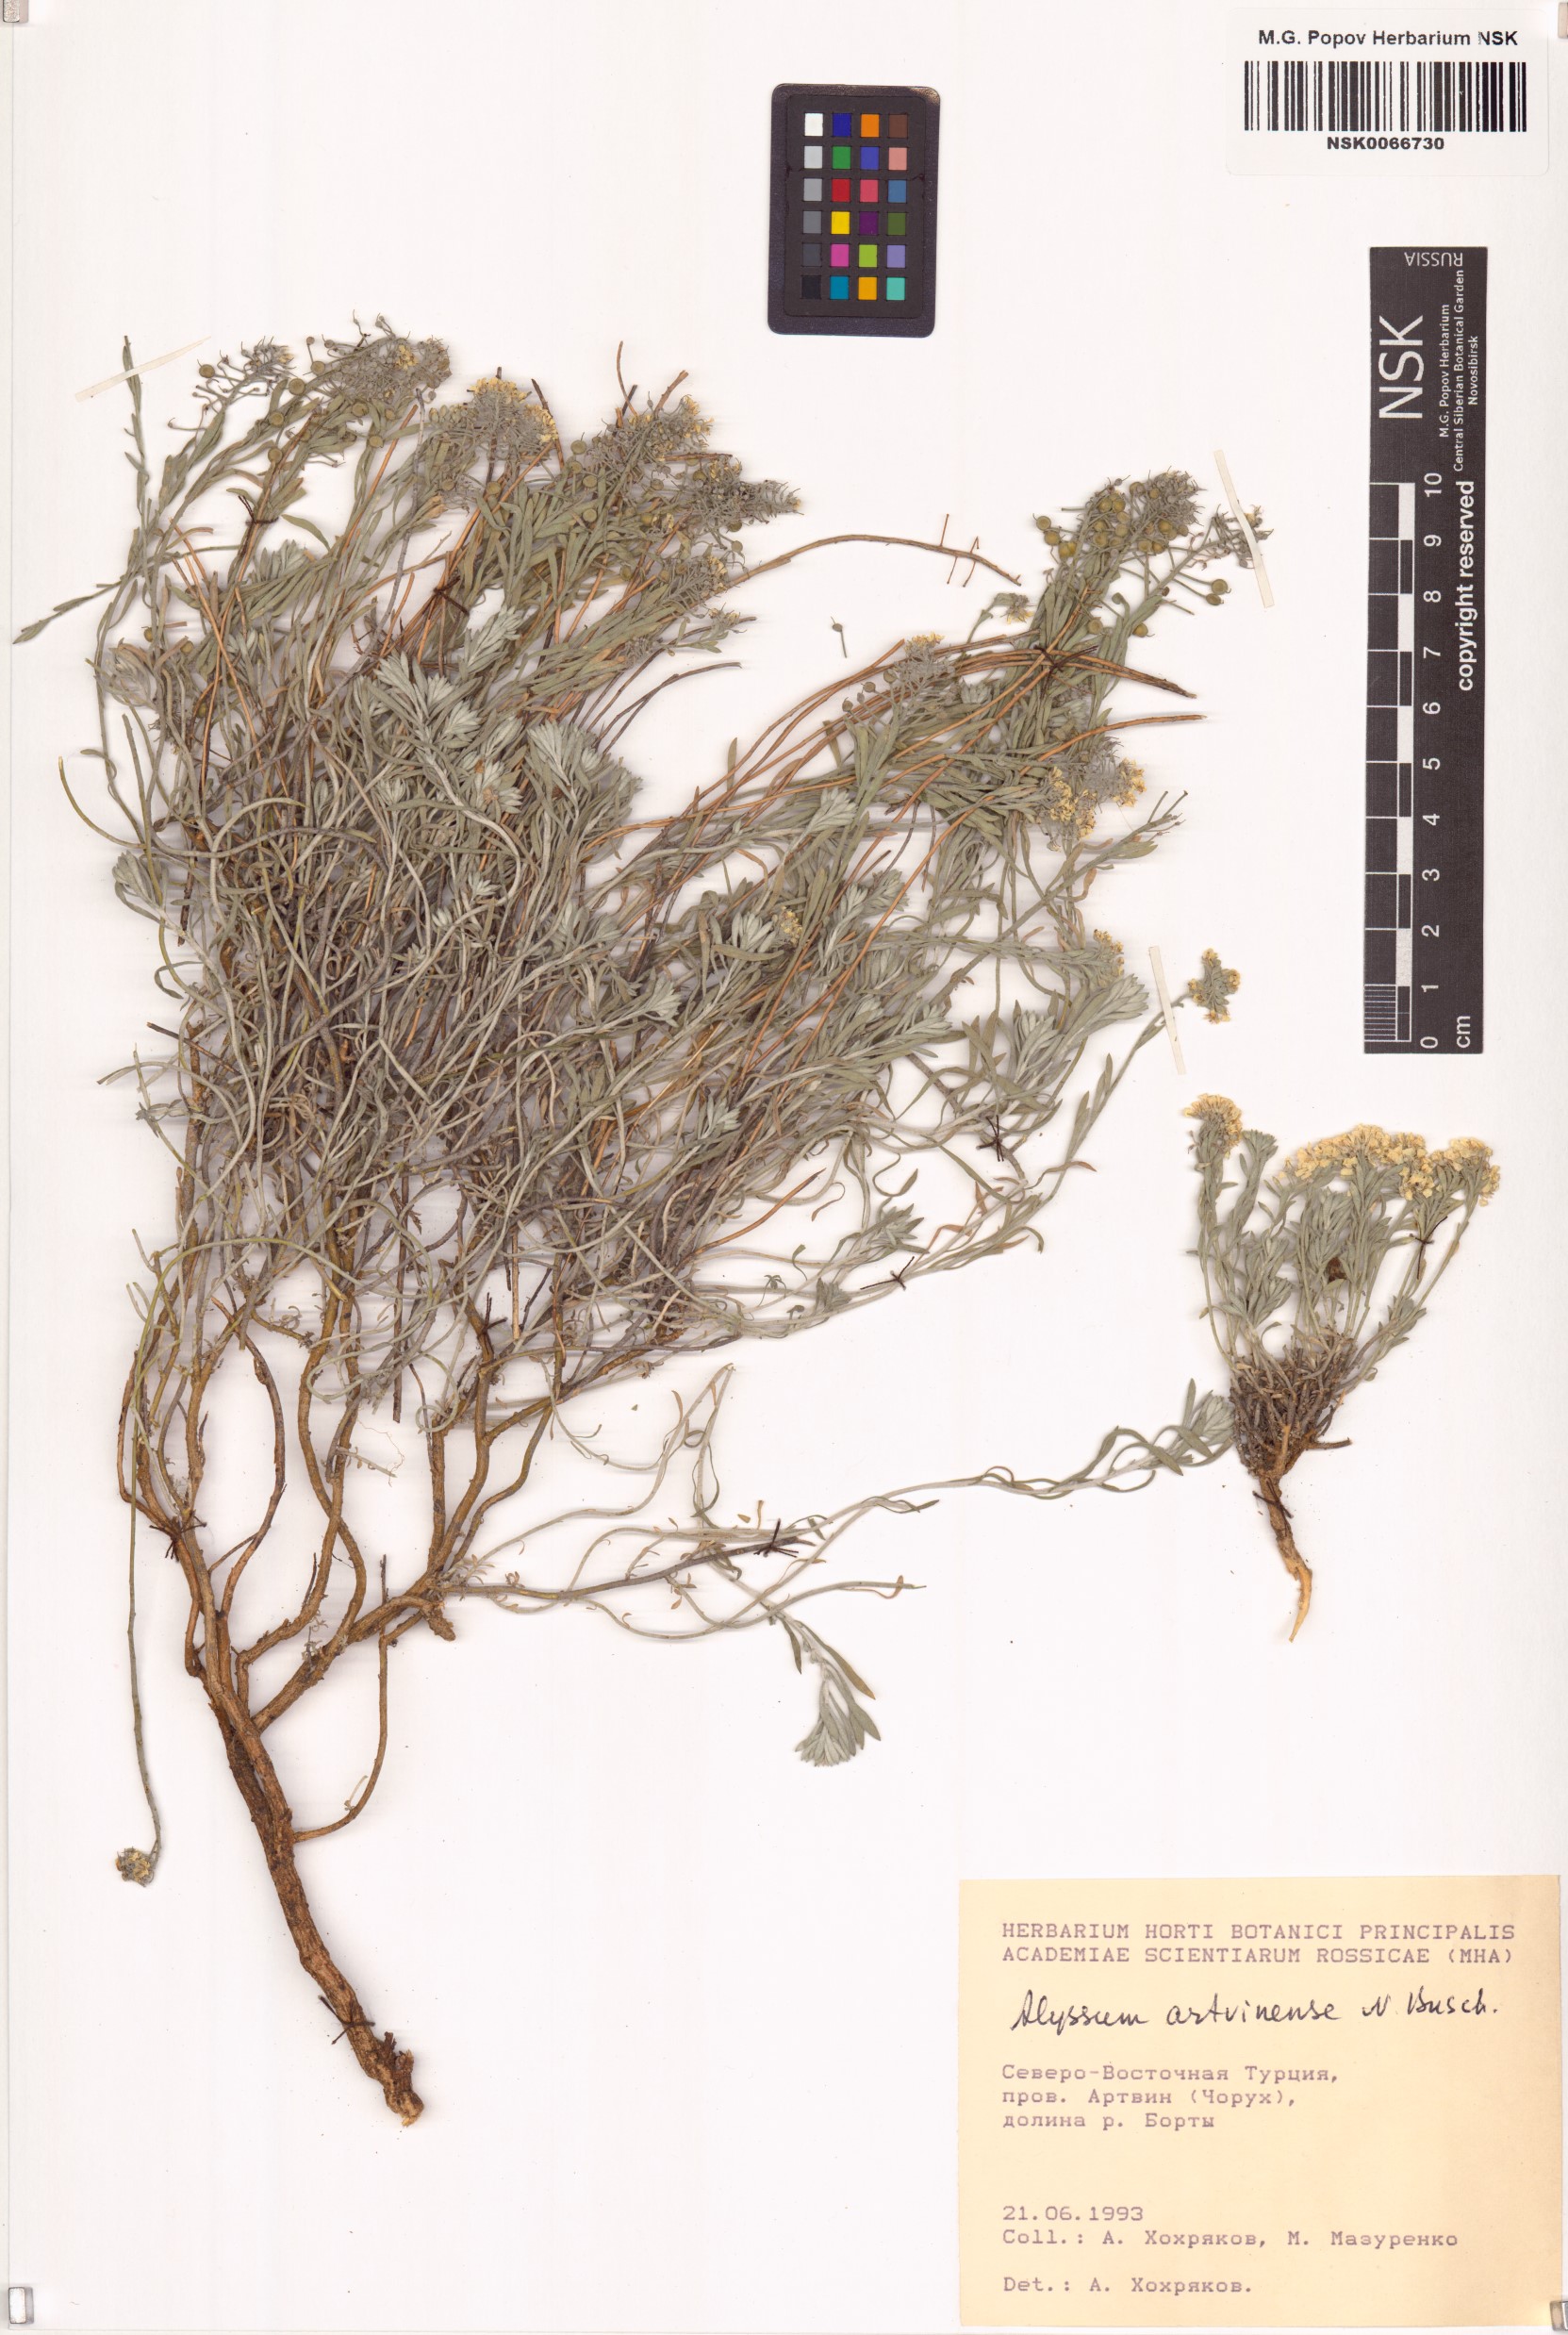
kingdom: Plantae
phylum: Tracheophyta
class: Magnoliopsida
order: Brassicales
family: Brassicaceae
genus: Alyssum
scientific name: Alyssum artwinense
